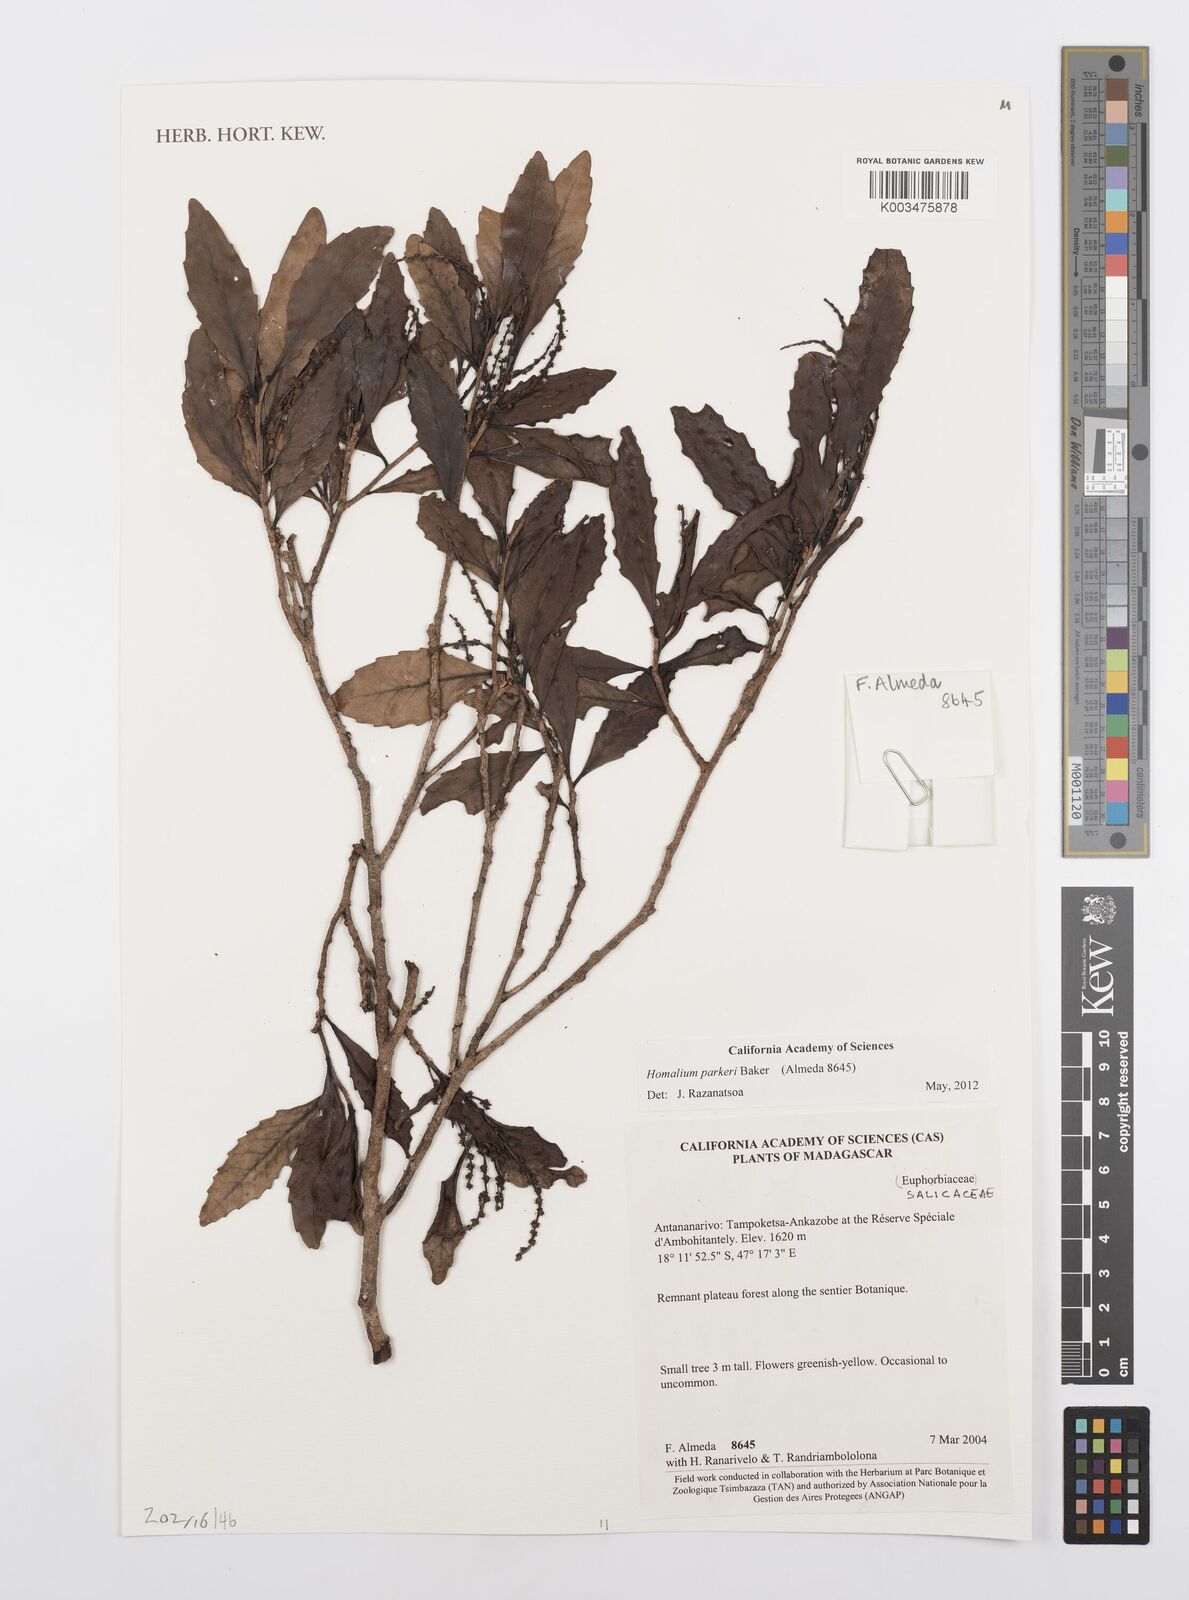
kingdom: Plantae
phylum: Tracheophyta
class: Magnoliopsida
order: Malpighiales
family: Salicaceae
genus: Homalium
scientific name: Homalium parkeri
